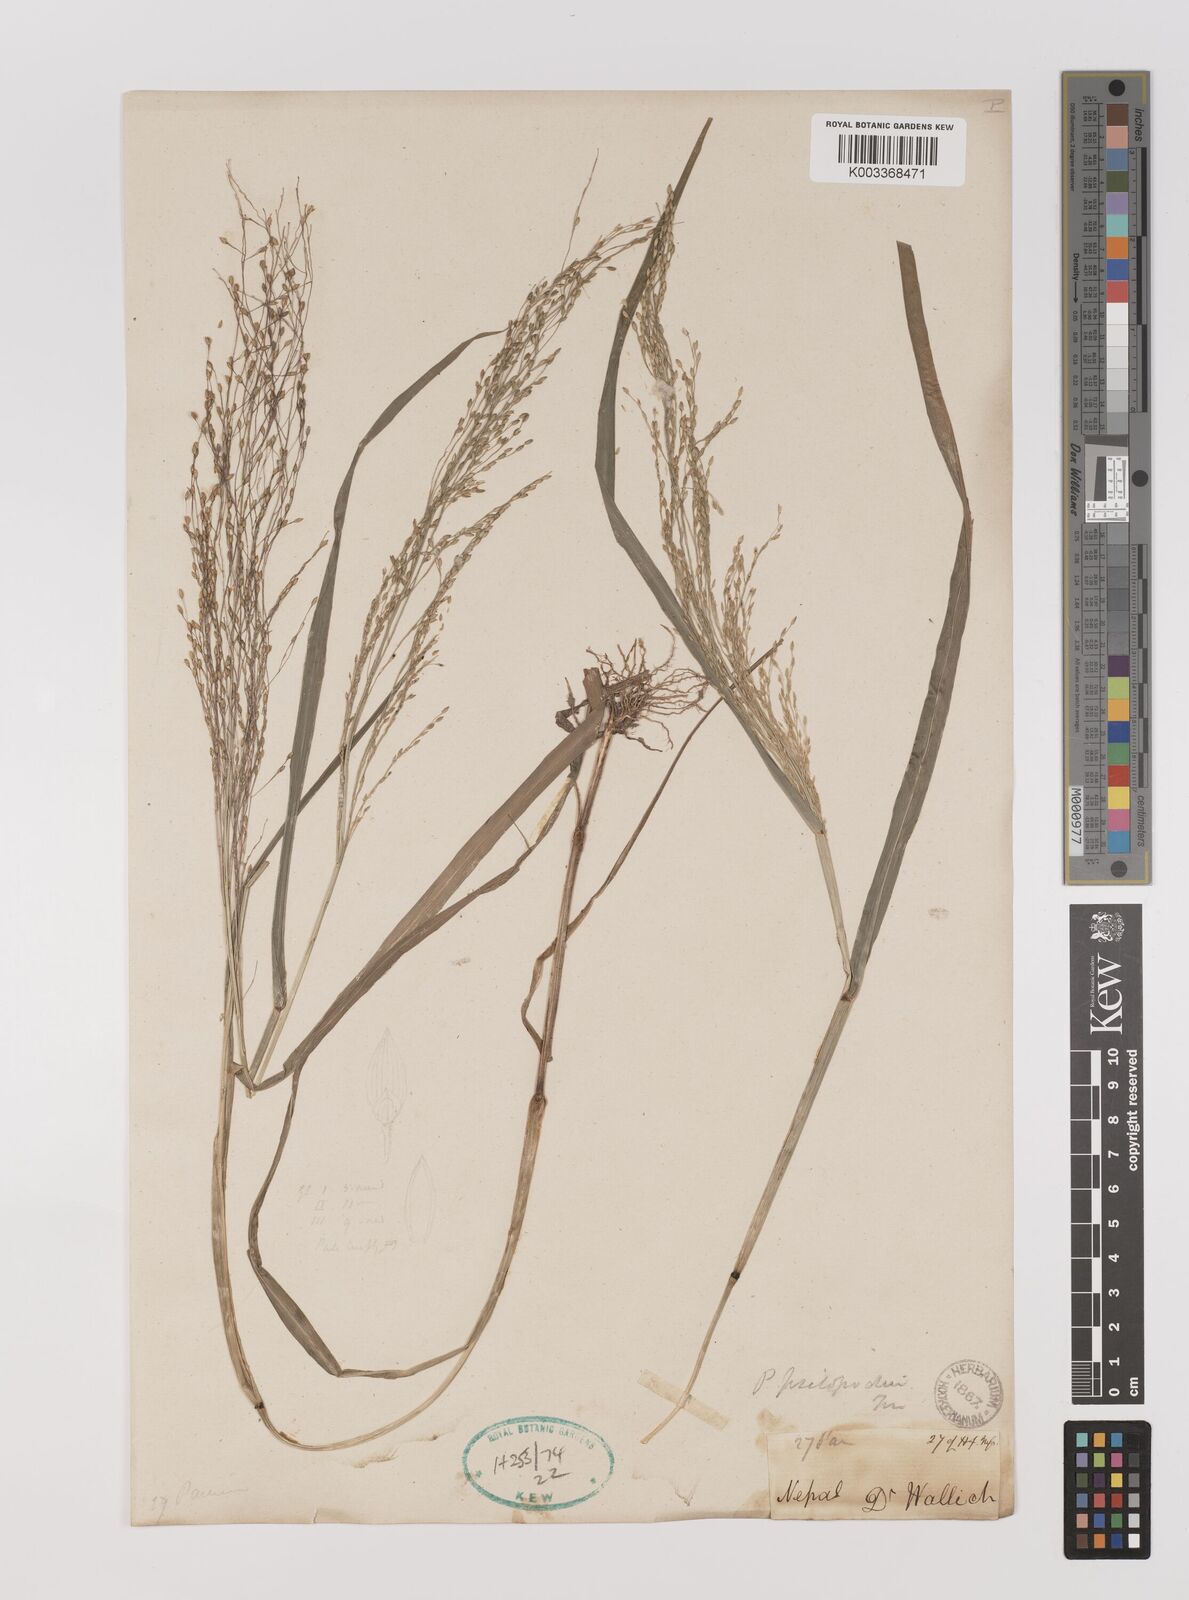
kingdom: Plantae
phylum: Tracheophyta
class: Liliopsida
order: Poales
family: Poaceae
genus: Panicum
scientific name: Panicum sumatrense
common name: Little millet
